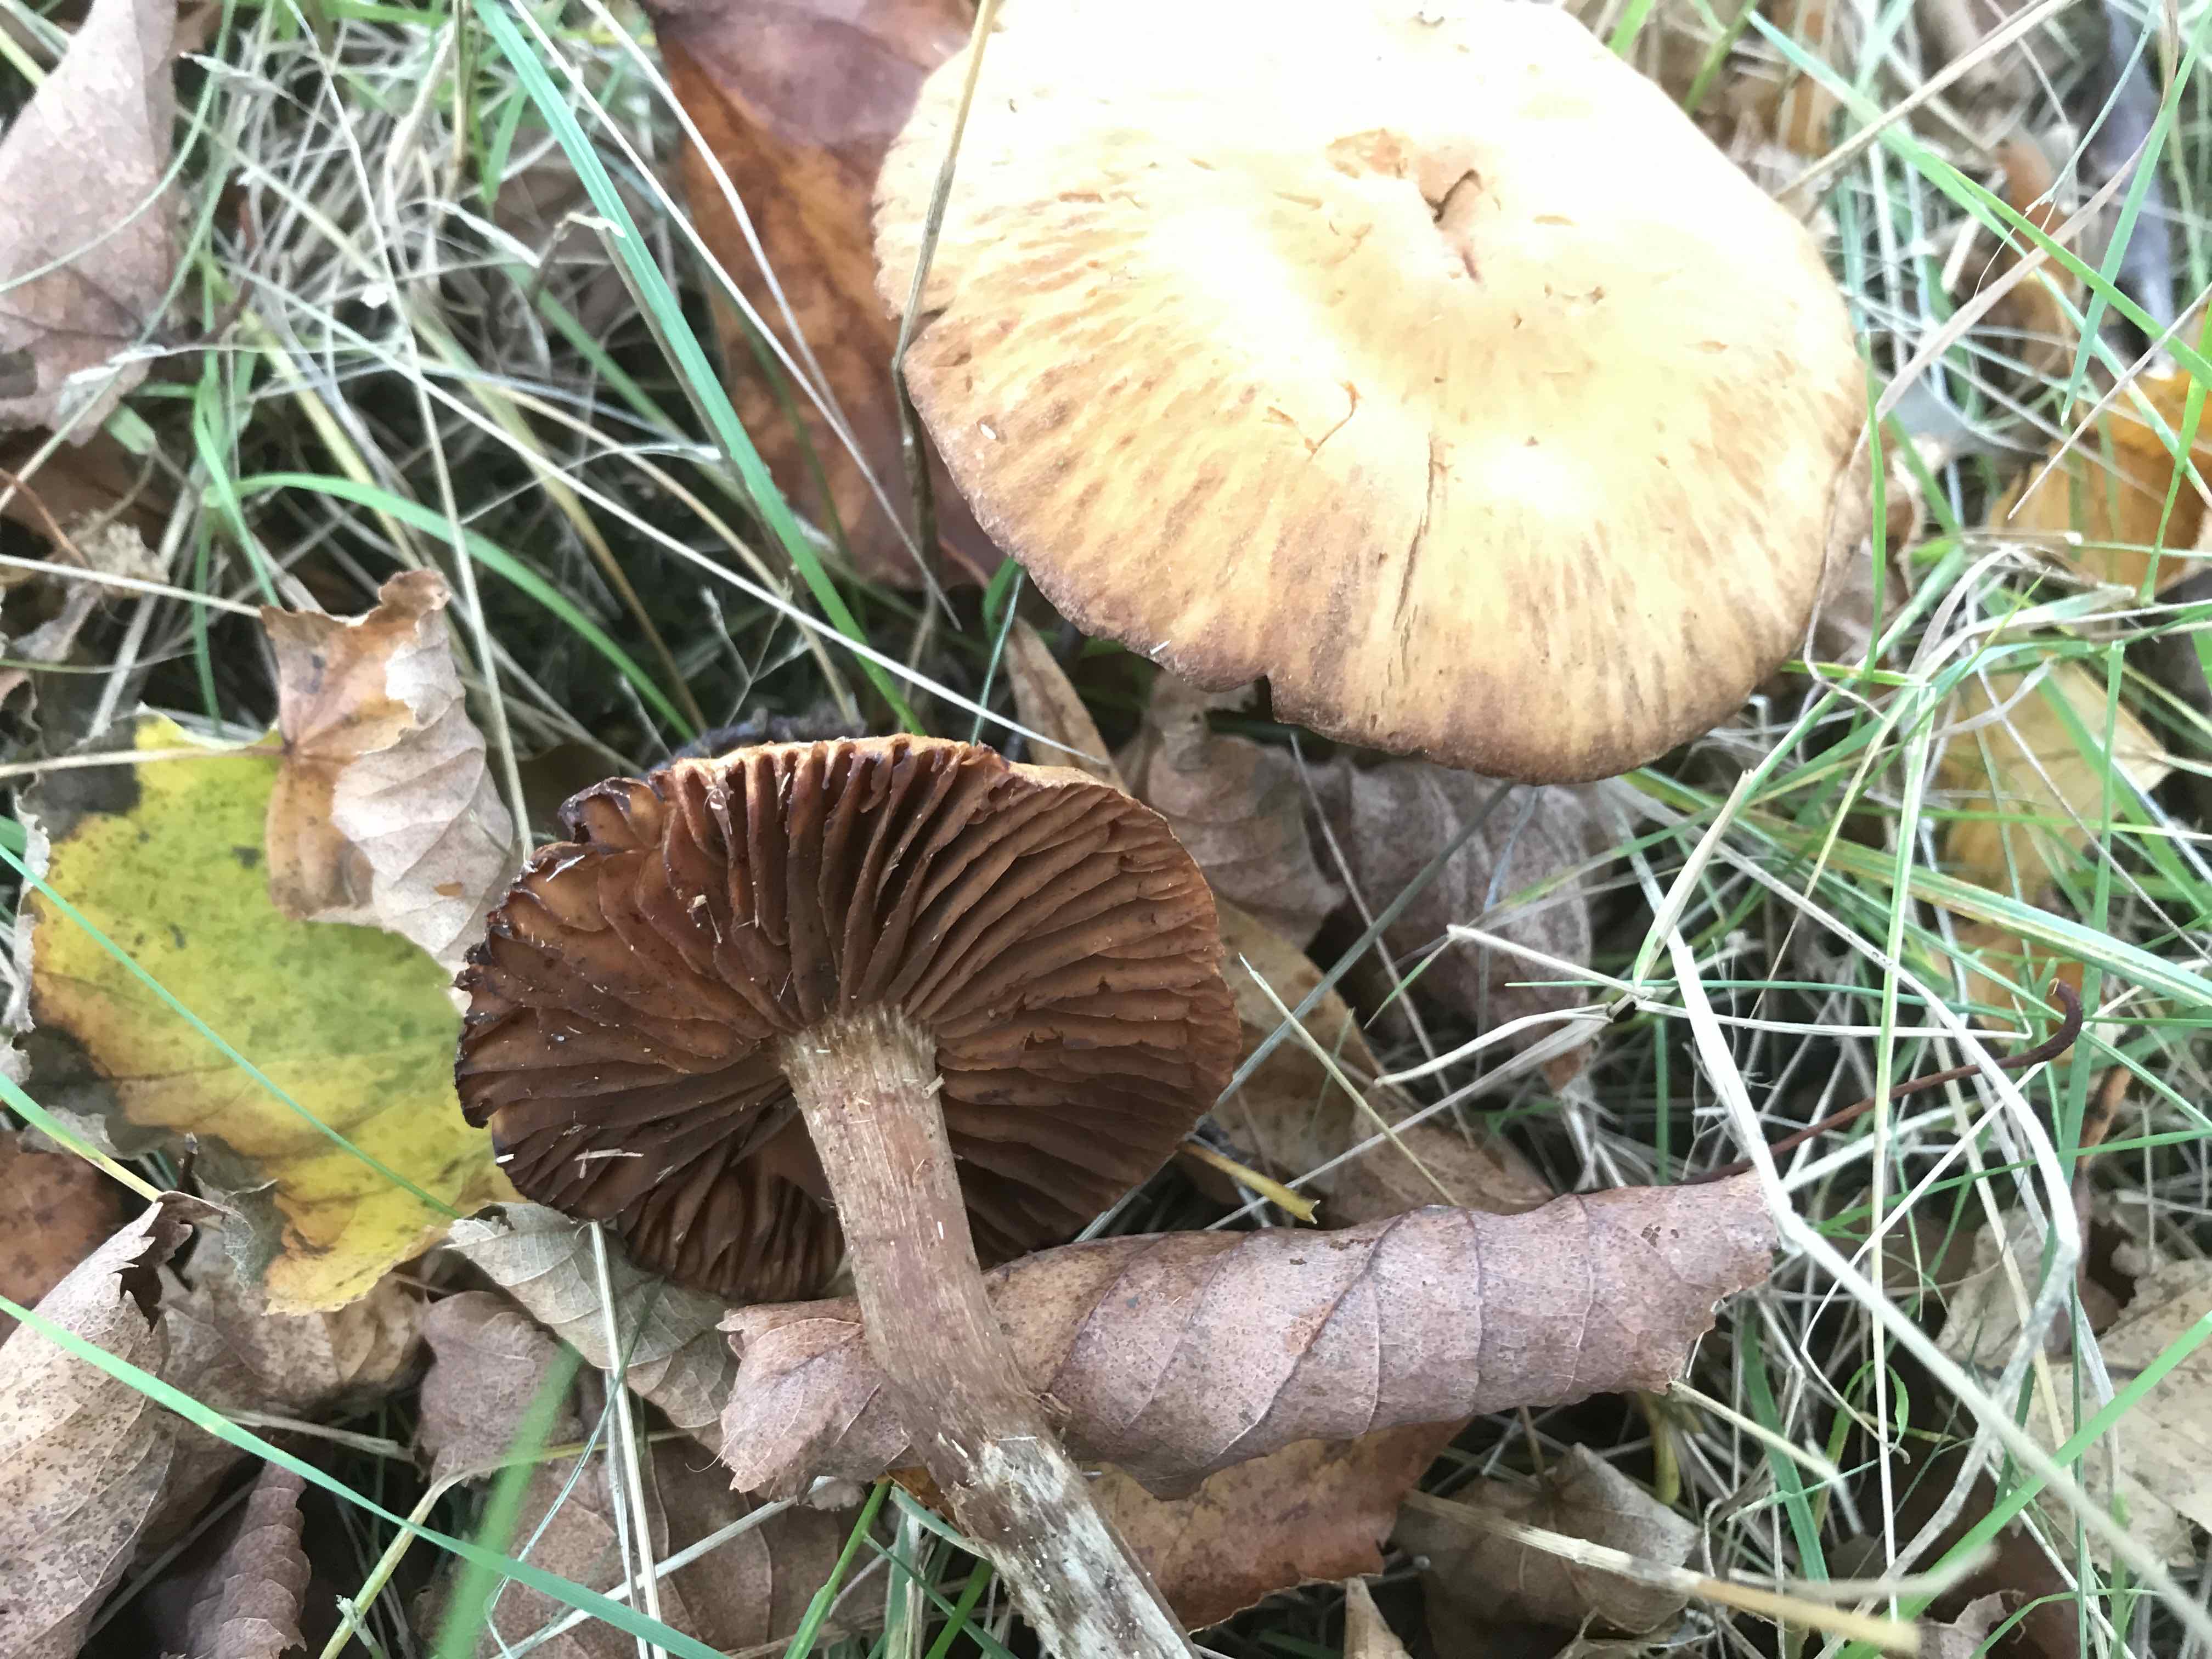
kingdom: Fungi
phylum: Basidiomycota
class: Agaricomycetes
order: Agaricales
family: Cortinariaceae
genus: Cortinarius
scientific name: Cortinarius hinnuleus
